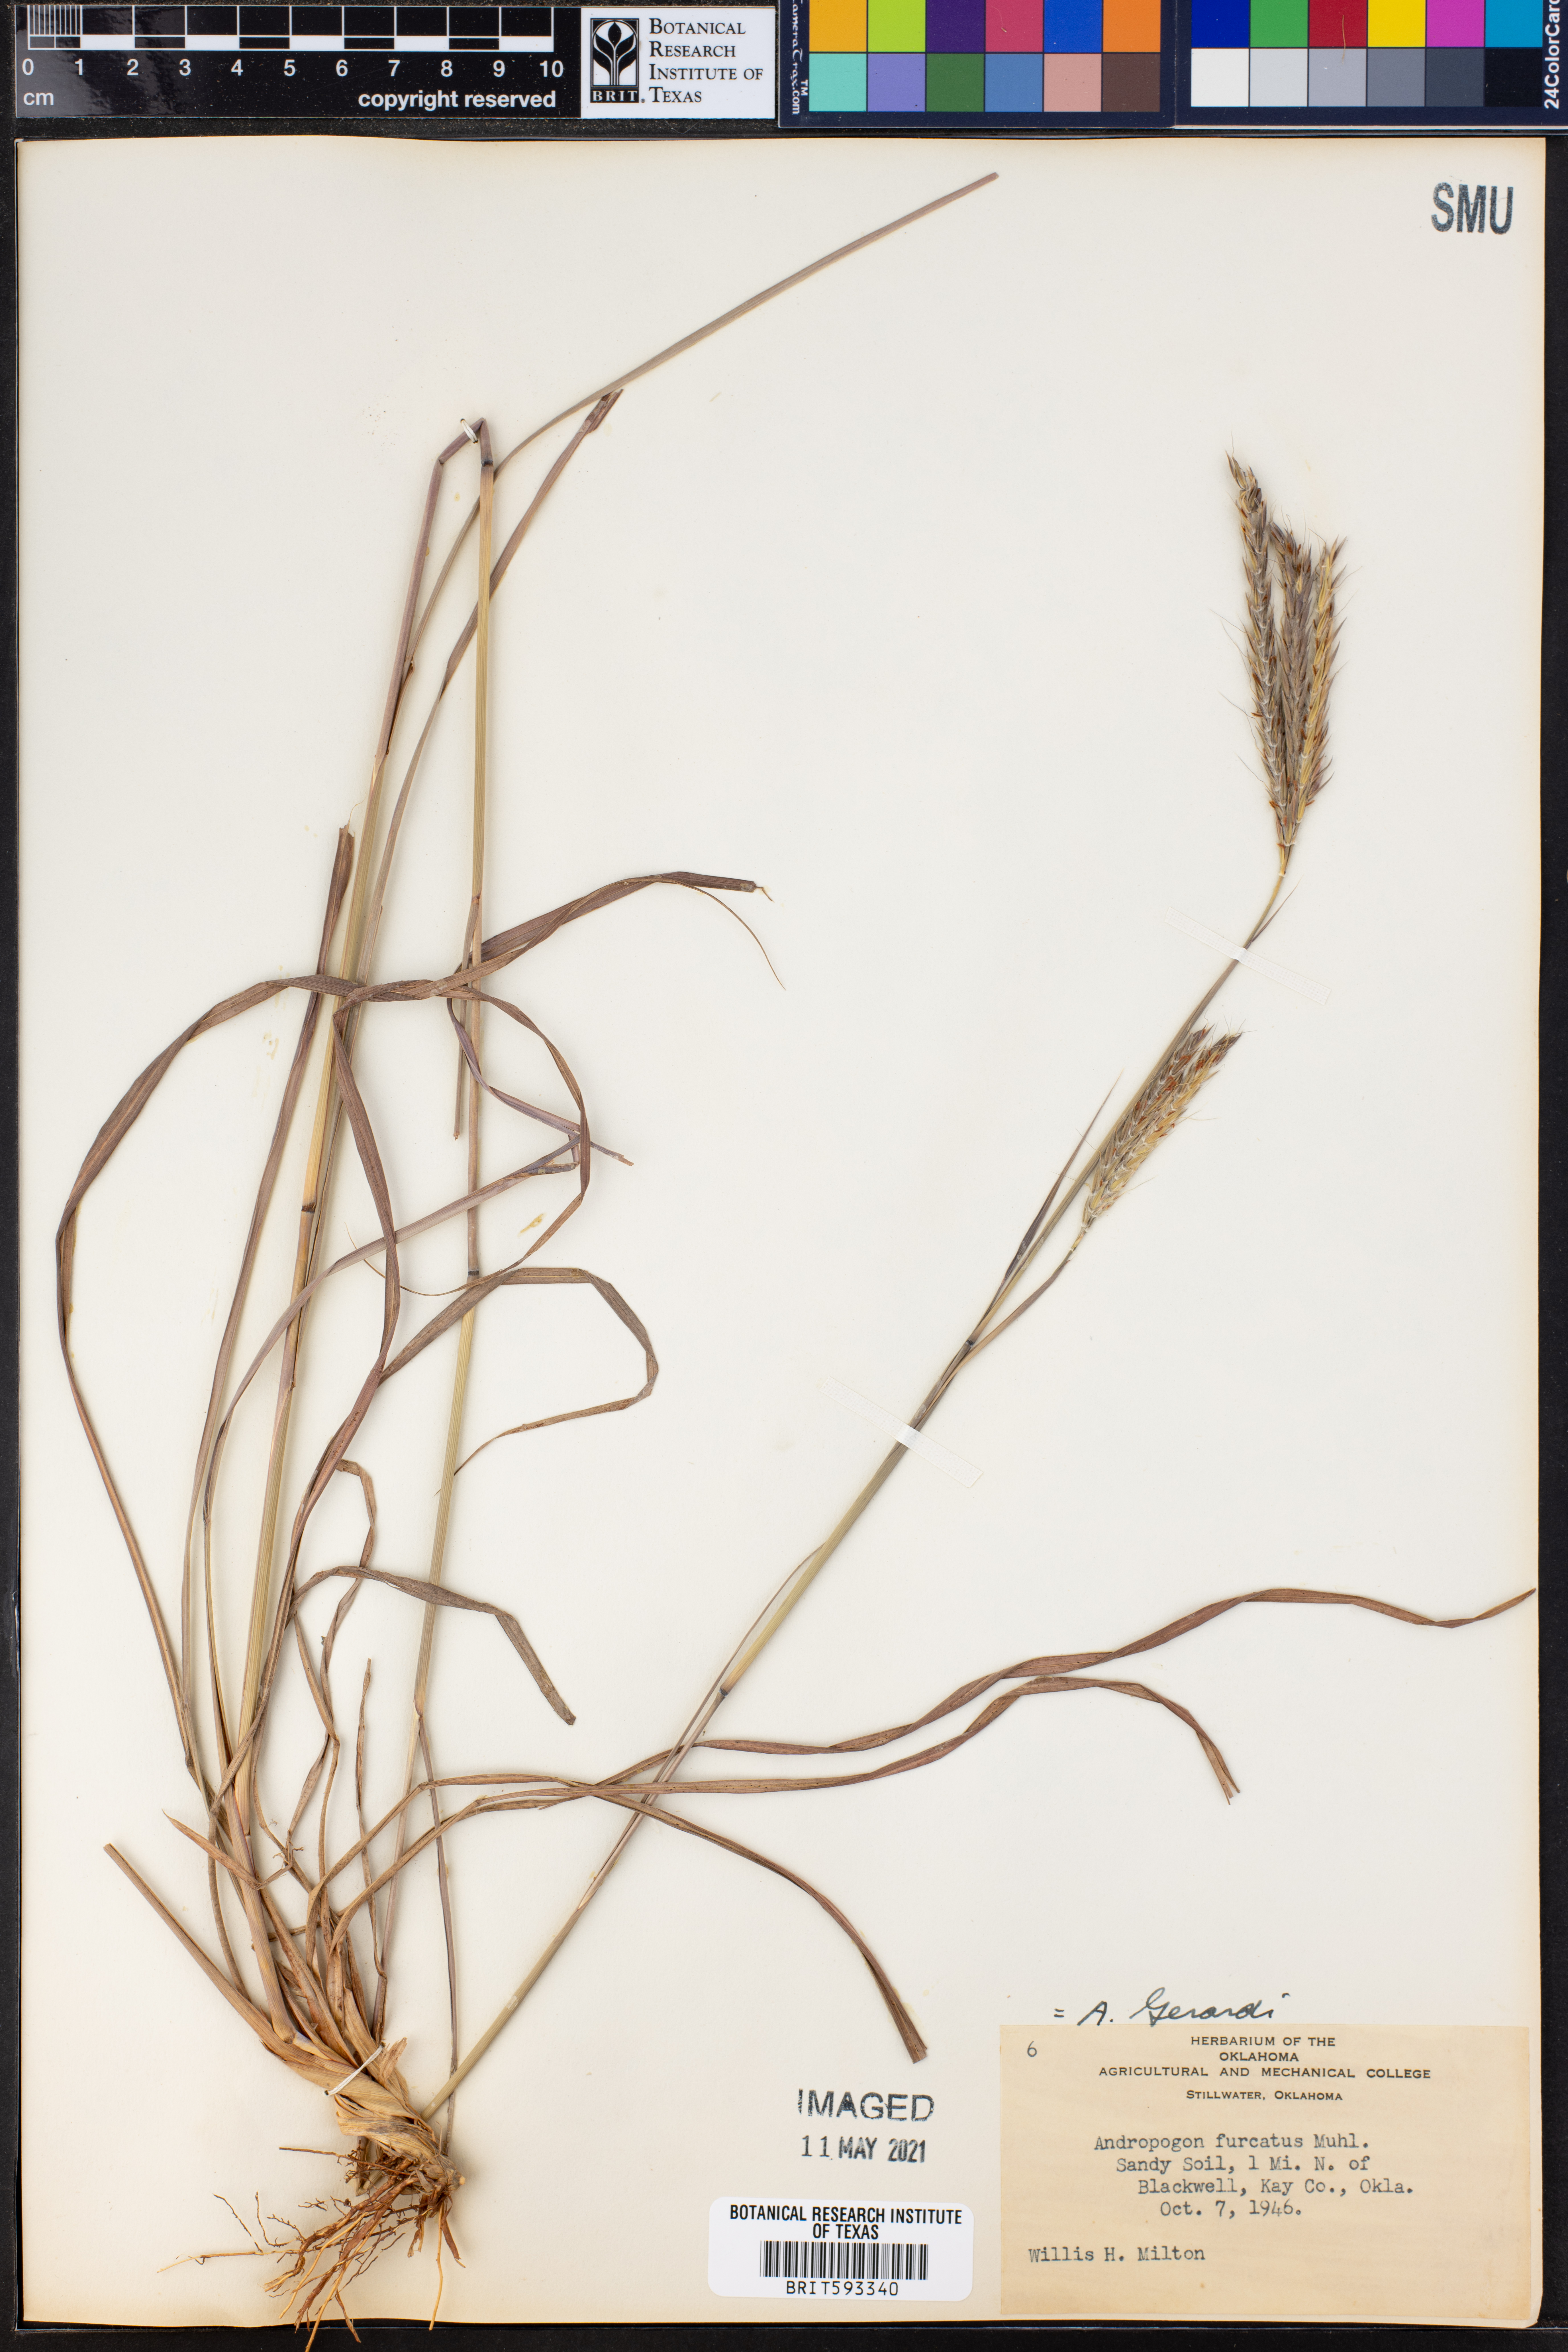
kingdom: Plantae
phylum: Tracheophyta
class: Liliopsida
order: Poales
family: Poaceae
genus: Andropogon
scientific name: Andropogon gerardi
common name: Big bluestem
